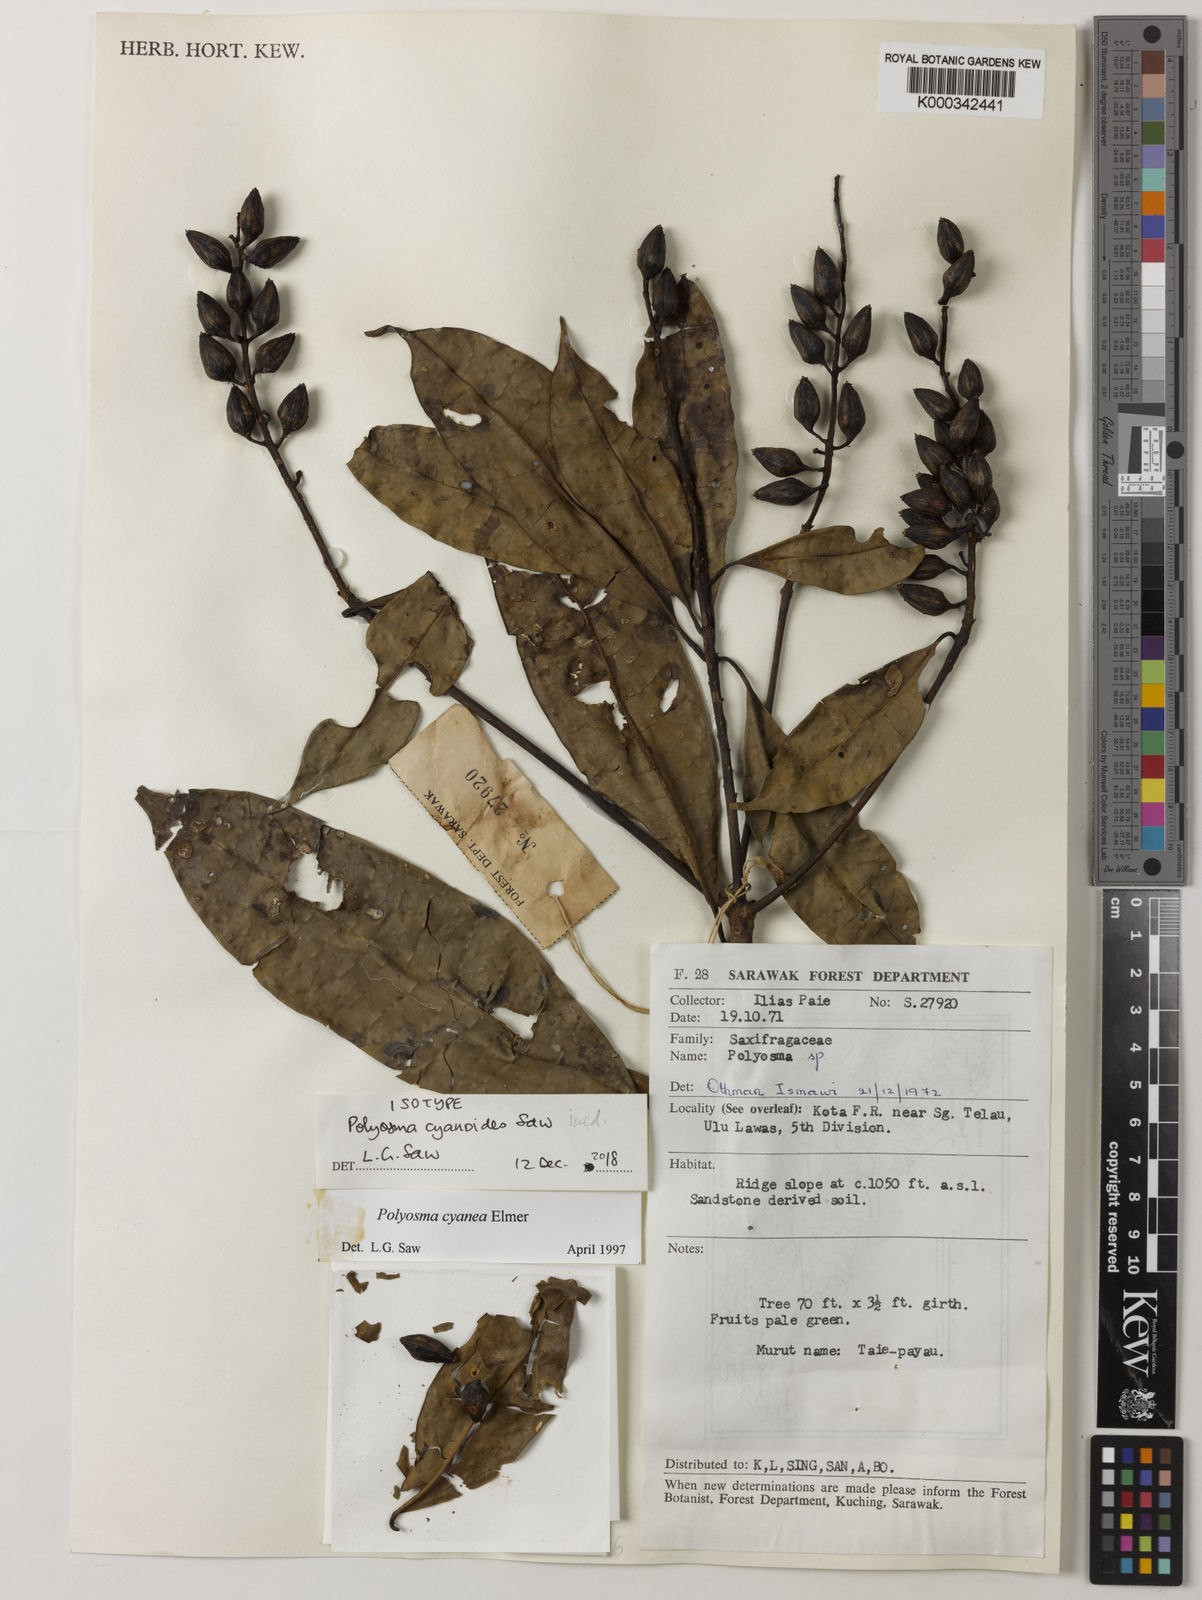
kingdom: Plantae
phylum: Tracheophyta
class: Magnoliopsida
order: Escalloniales
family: Escalloniaceae
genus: Polyosma
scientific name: Polyosma
